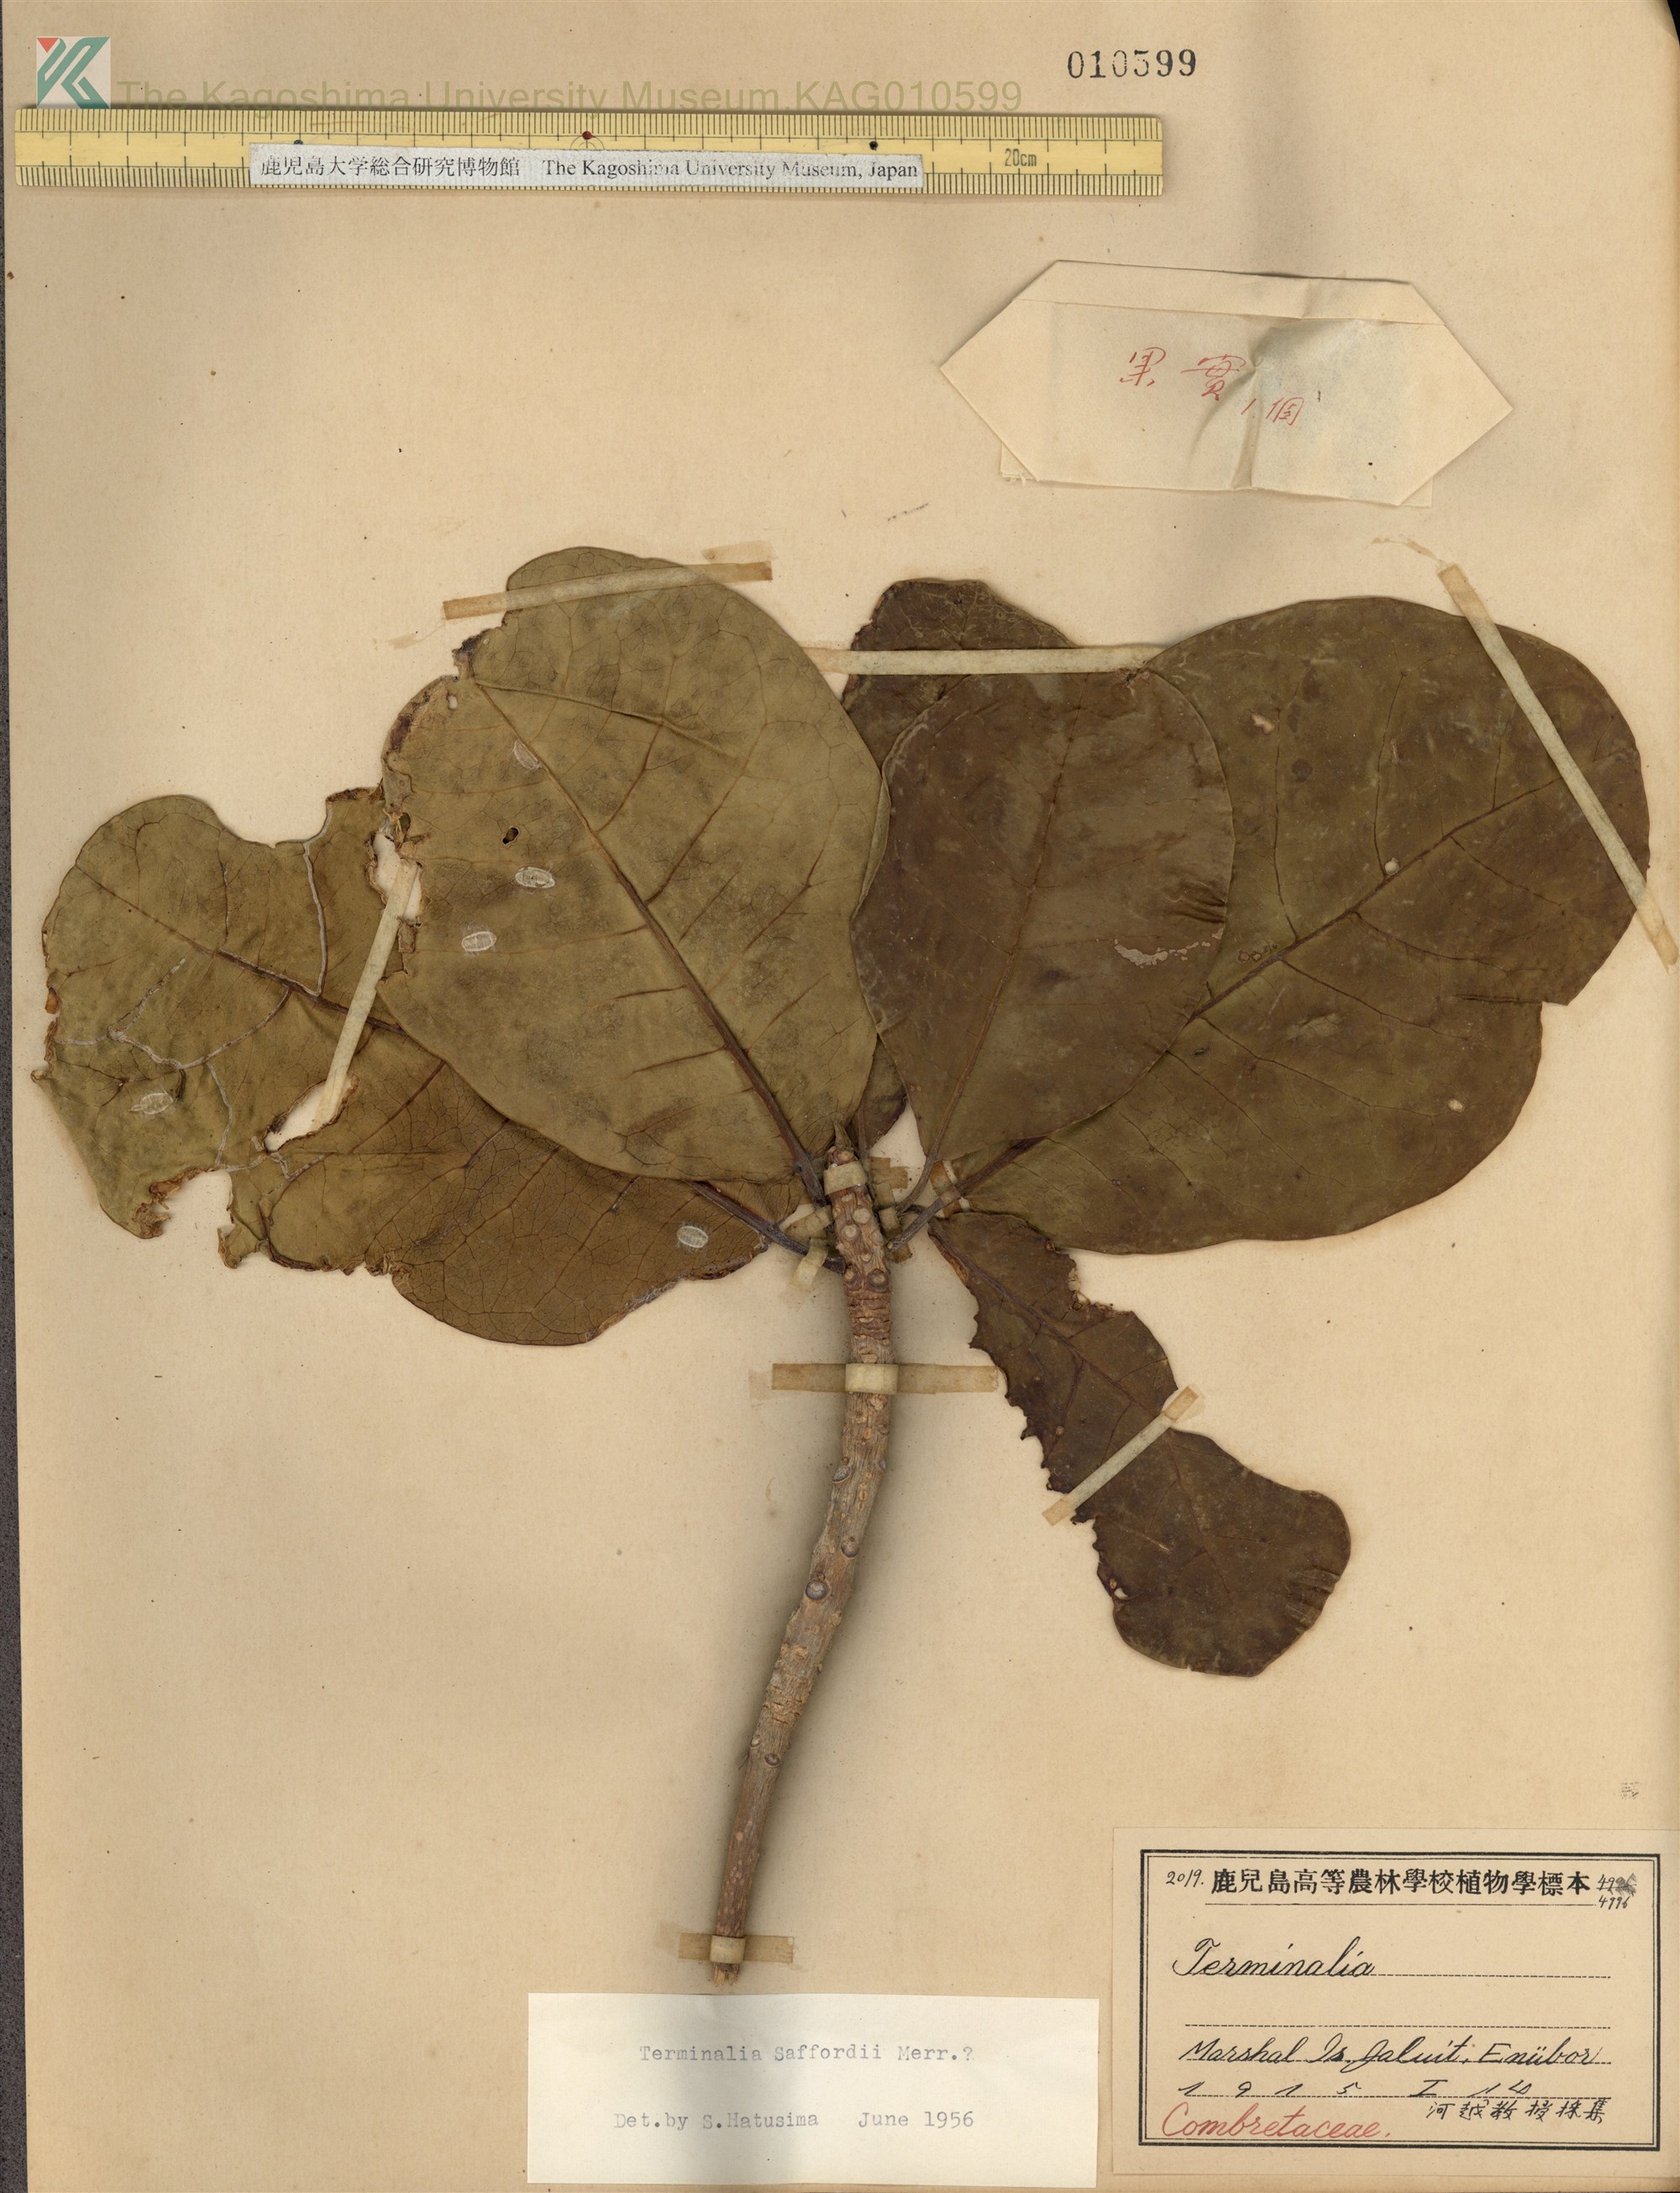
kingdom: Plantae
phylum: Tracheophyta
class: Magnoliopsida
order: Myrtales
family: Combretaceae
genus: Terminalia
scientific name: Terminalia samoensis
